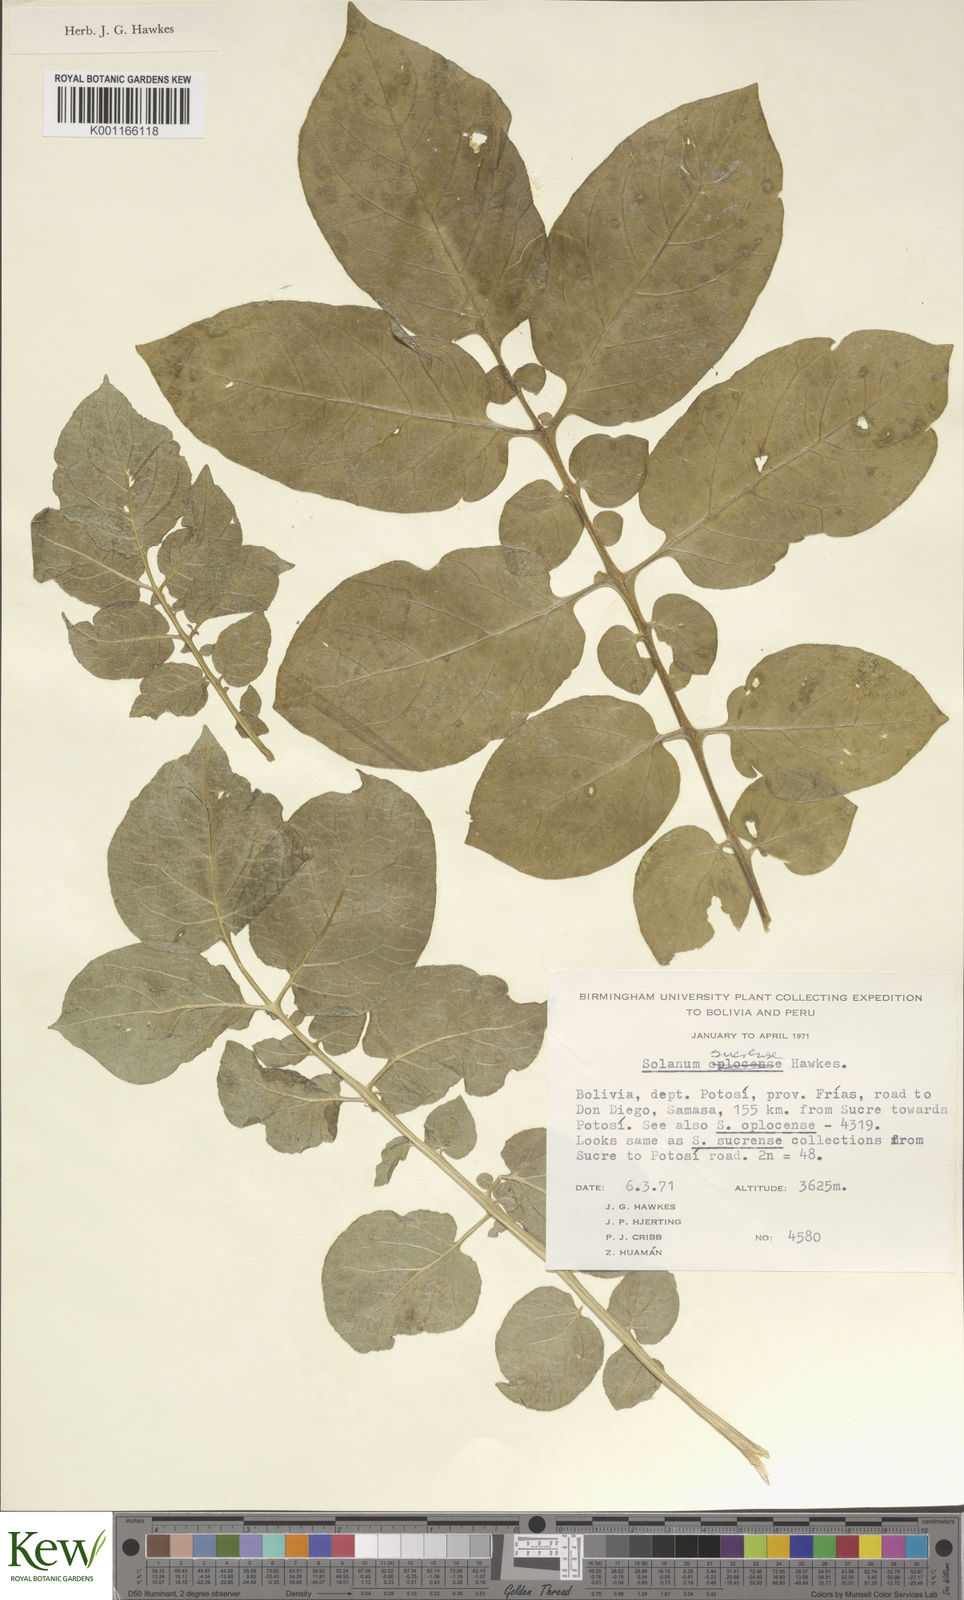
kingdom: Plantae
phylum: Tracheophyta
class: Magnoliopsida
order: Solanales
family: Solanaceae
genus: Solanum
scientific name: Solanum brevicaule
